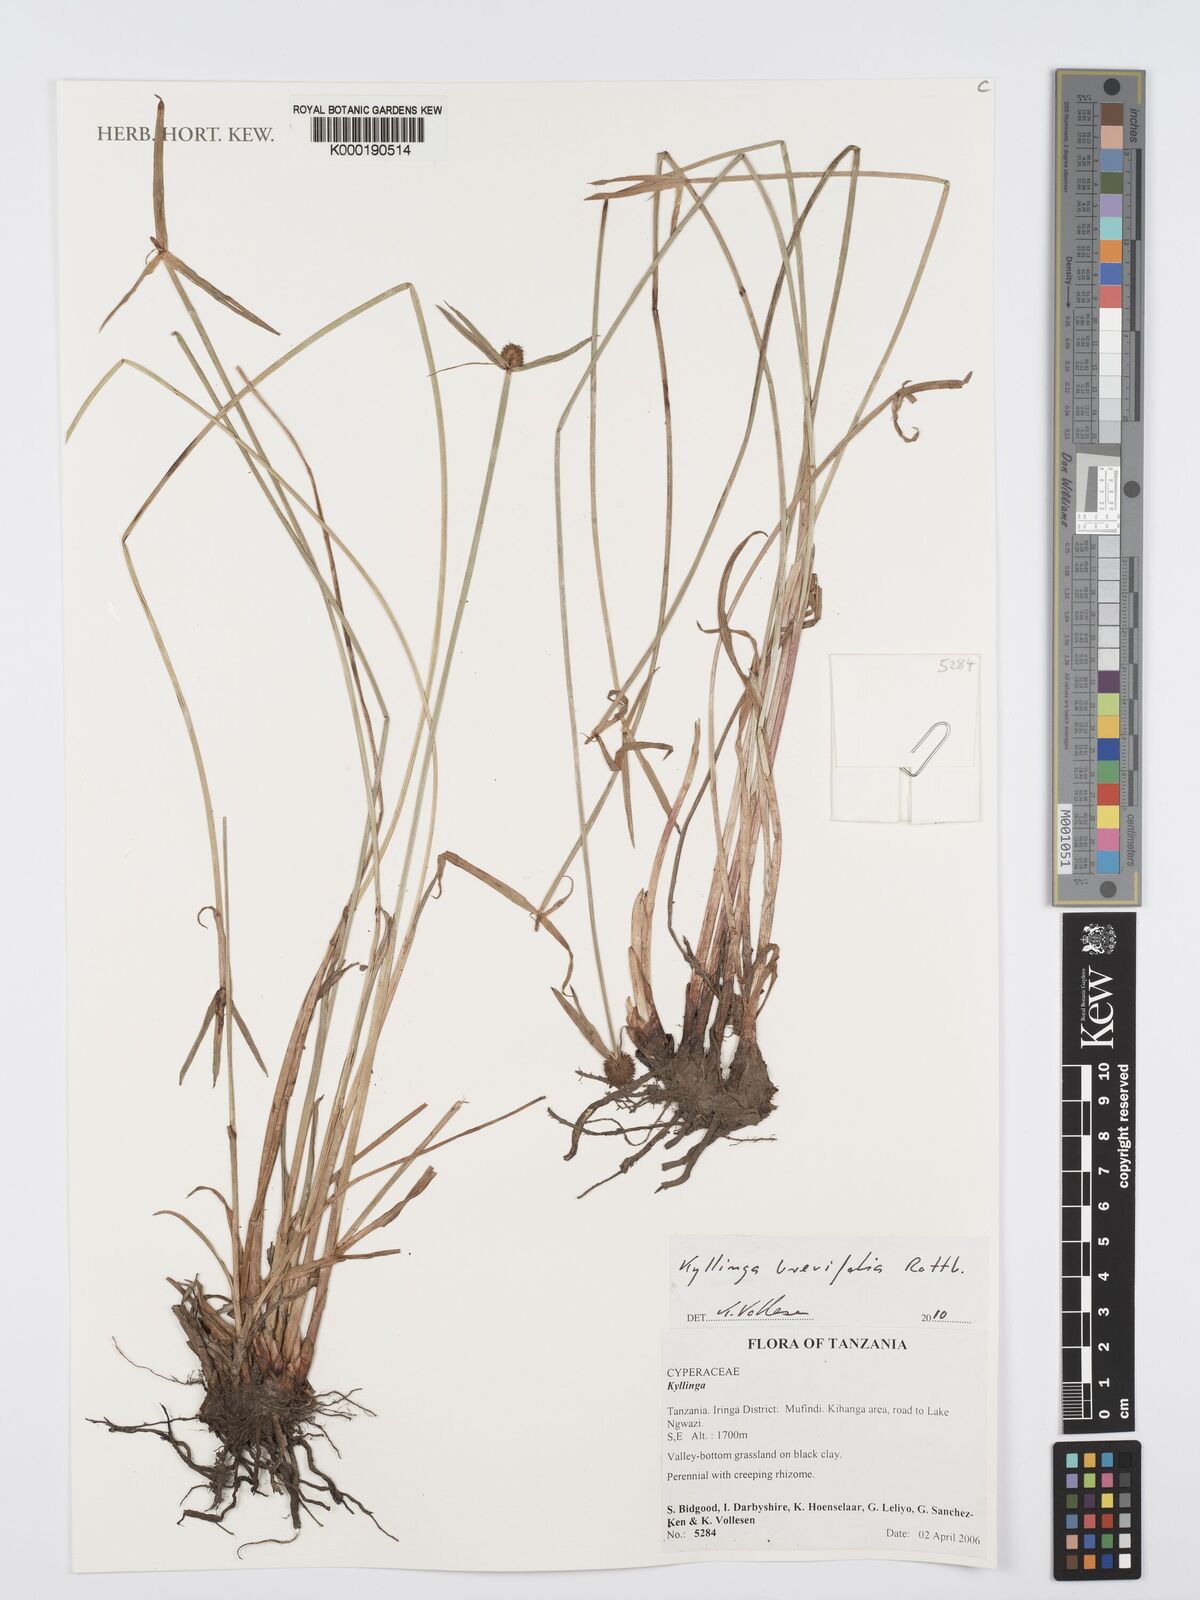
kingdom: Plantae
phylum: Tracheophyta
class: Liliopsida
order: Poales
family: Cyperaceae
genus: Cyperus
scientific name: Cyperus
